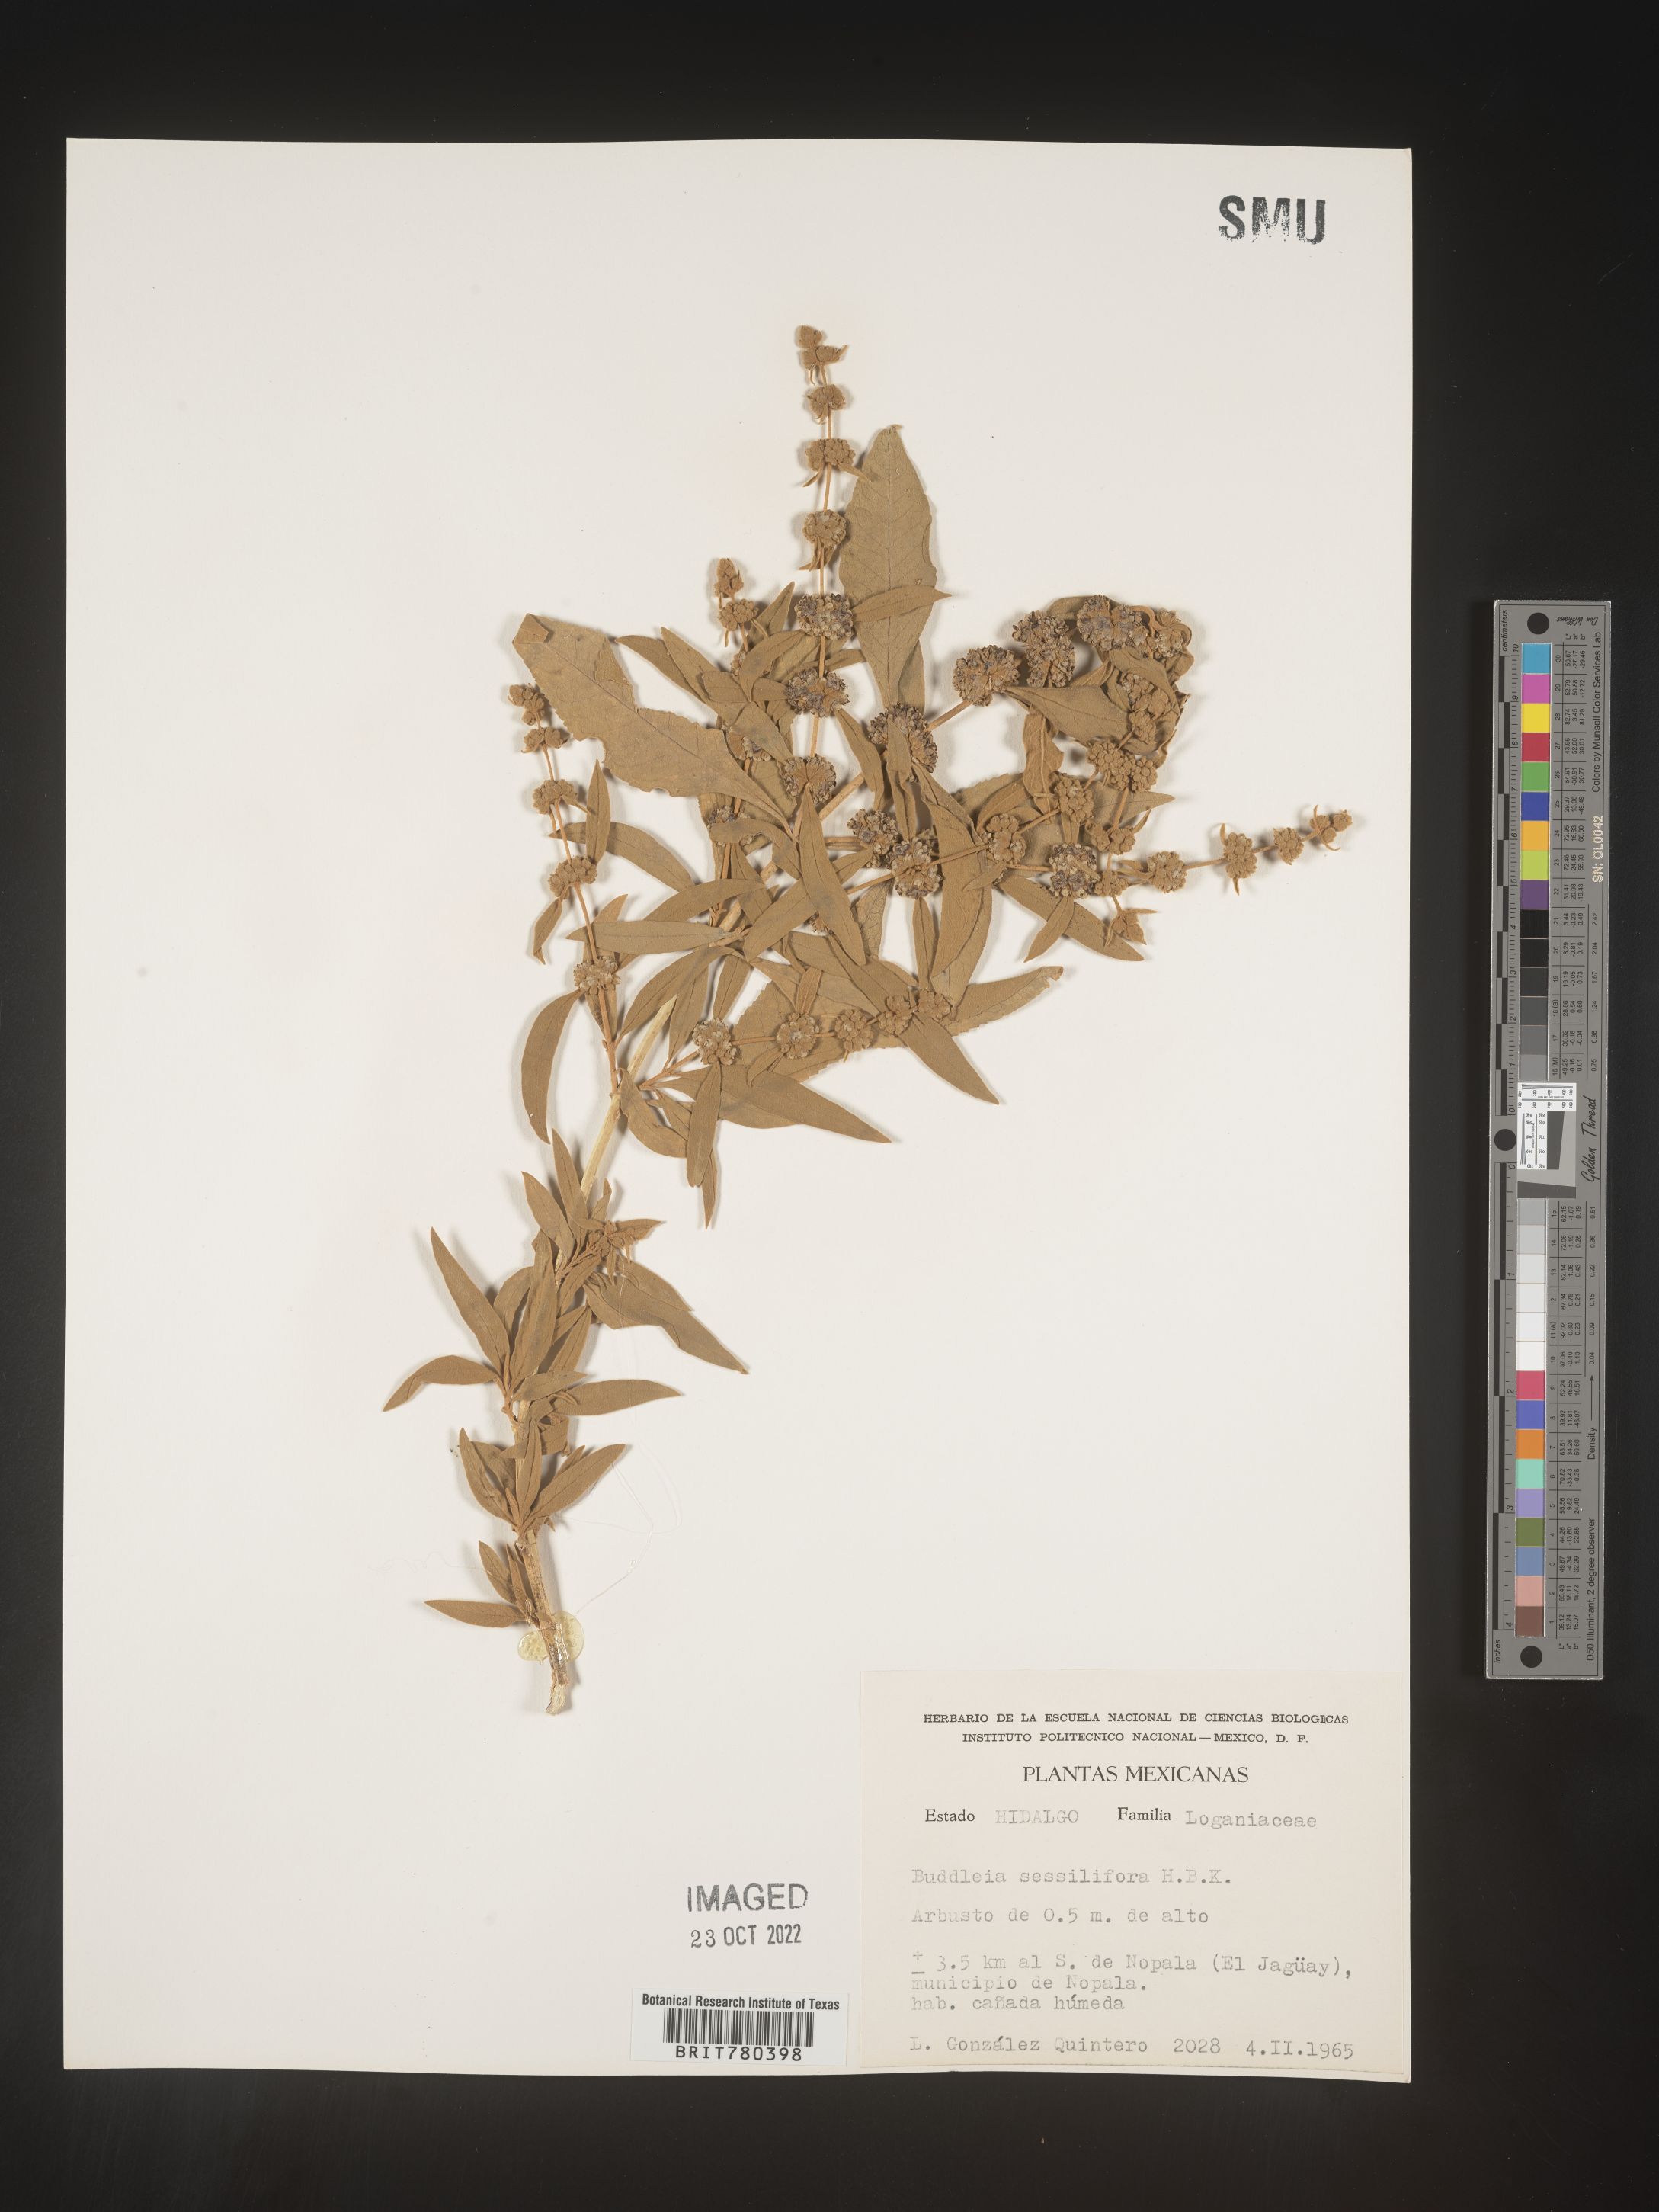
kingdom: Plantae
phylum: Tracheophyta
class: Magnoliopsida
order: Lamiales
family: Scrophulariaceae
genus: Buddleja
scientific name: Buddleja
